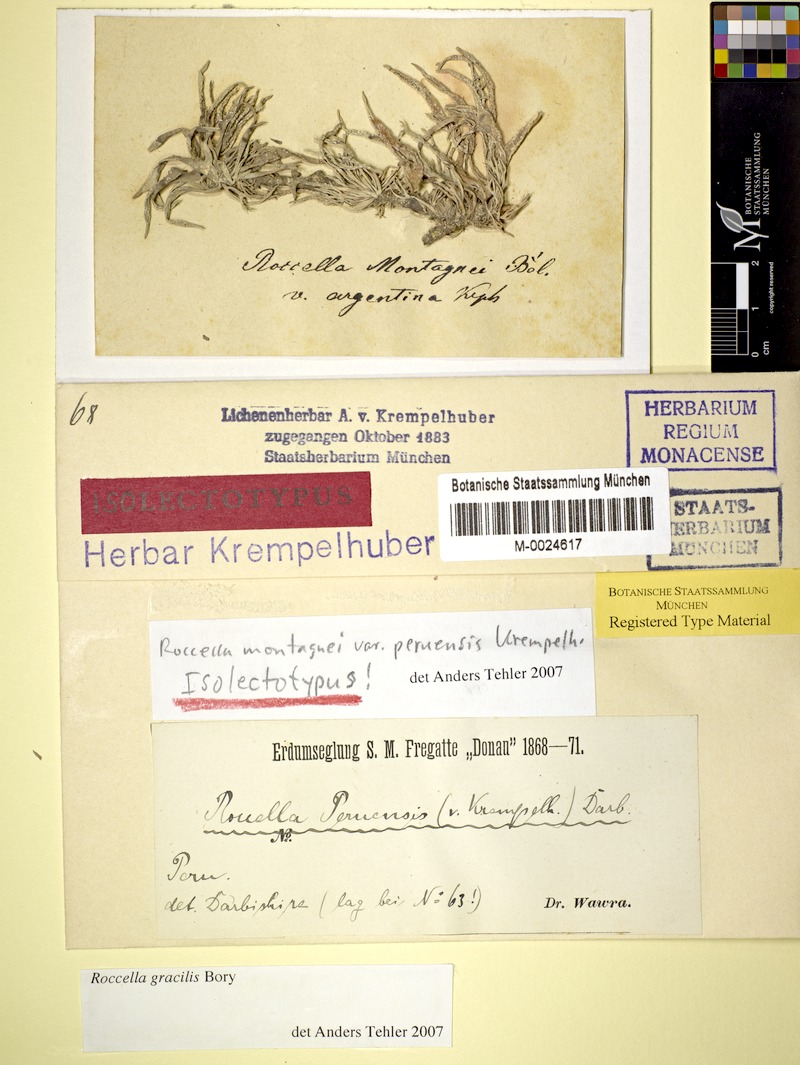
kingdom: Fungi
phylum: Ascomycota
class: Arthoniomycetes
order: Arthoniales
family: Roccellaceae
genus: Roccella
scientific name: Roccella gracilis
